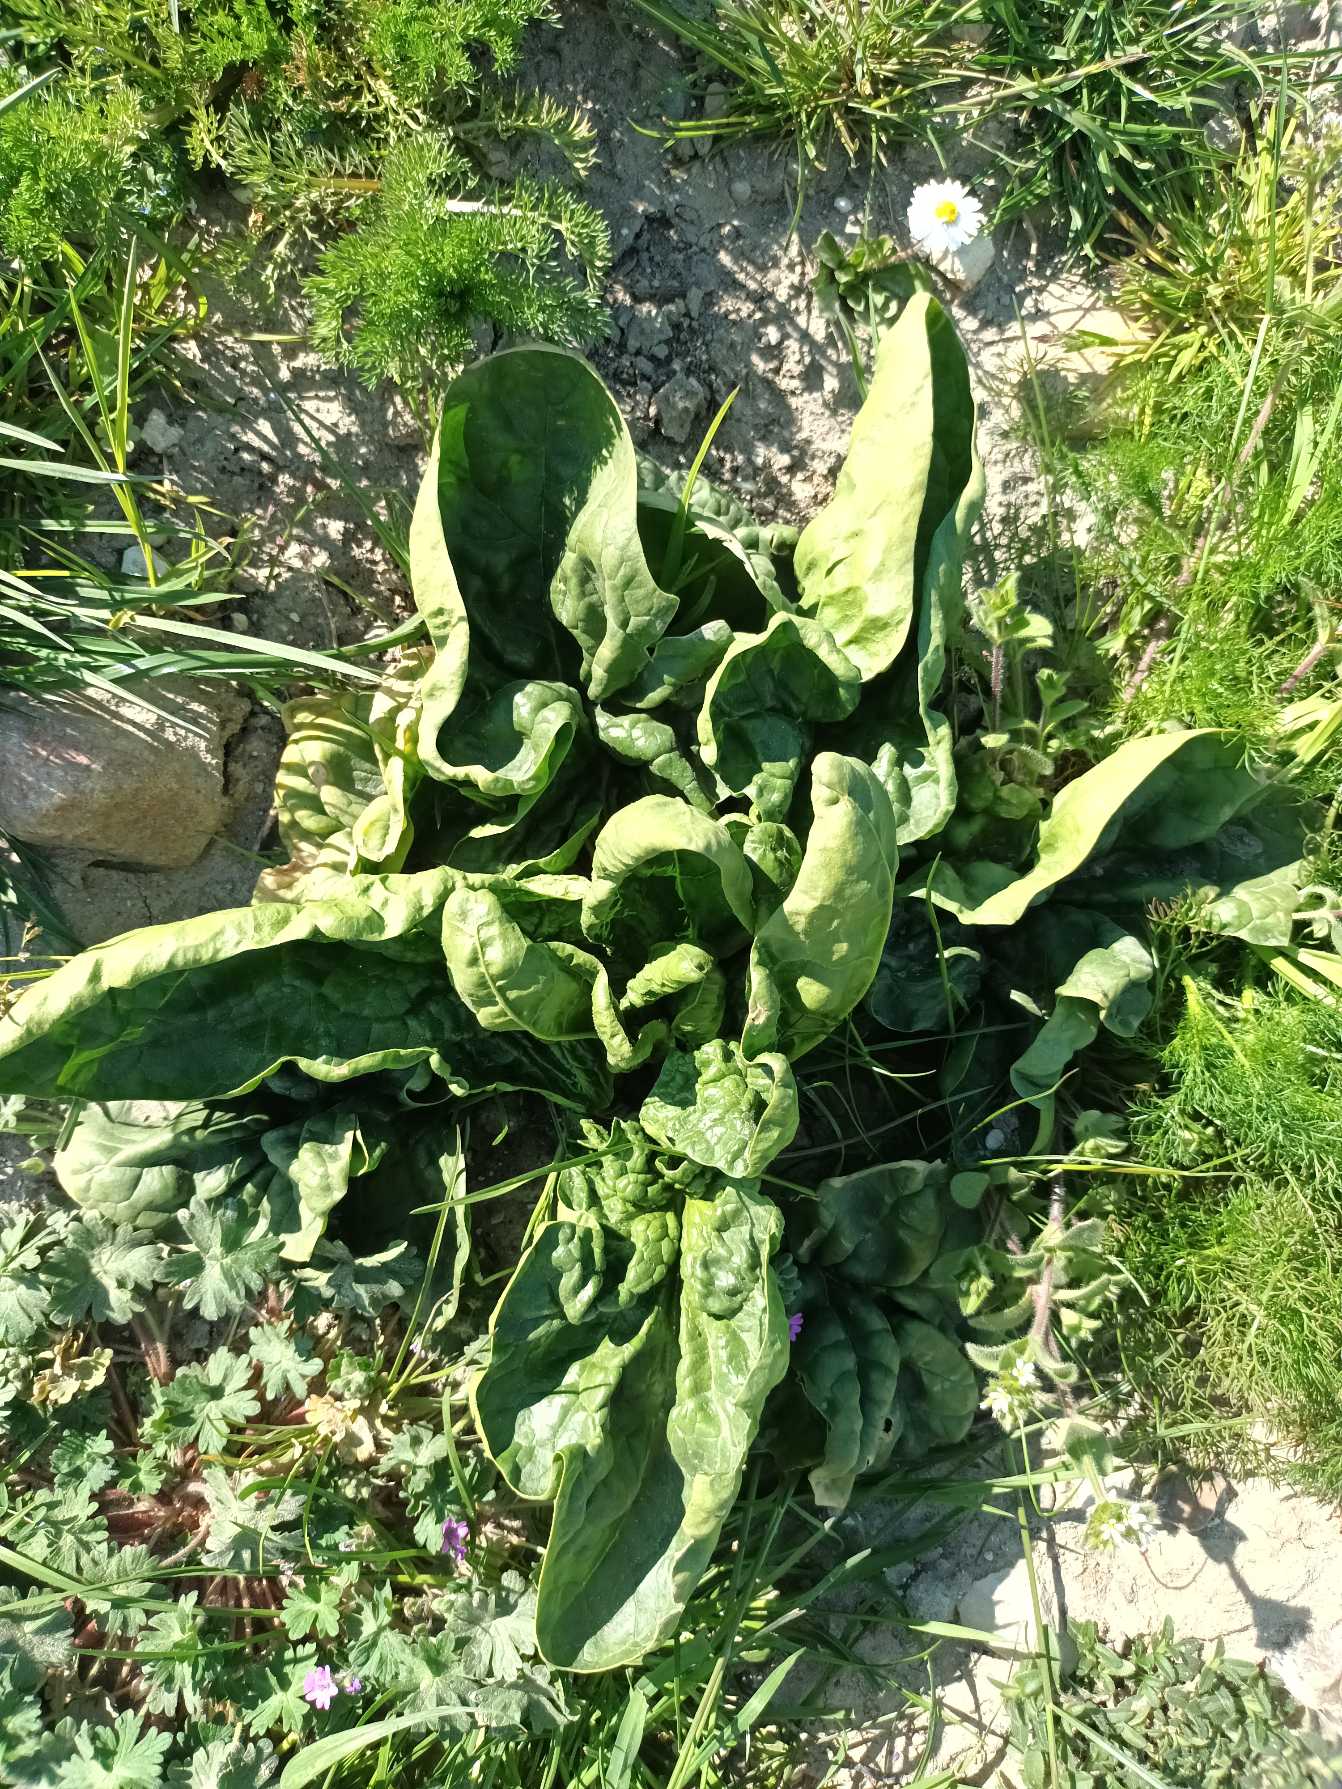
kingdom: Plantae
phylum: Tracheophyta
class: Magnoliopsida
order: Caryophyllales
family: Amaranthaceae
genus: Beta
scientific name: Beta vulgaris
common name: Bede
